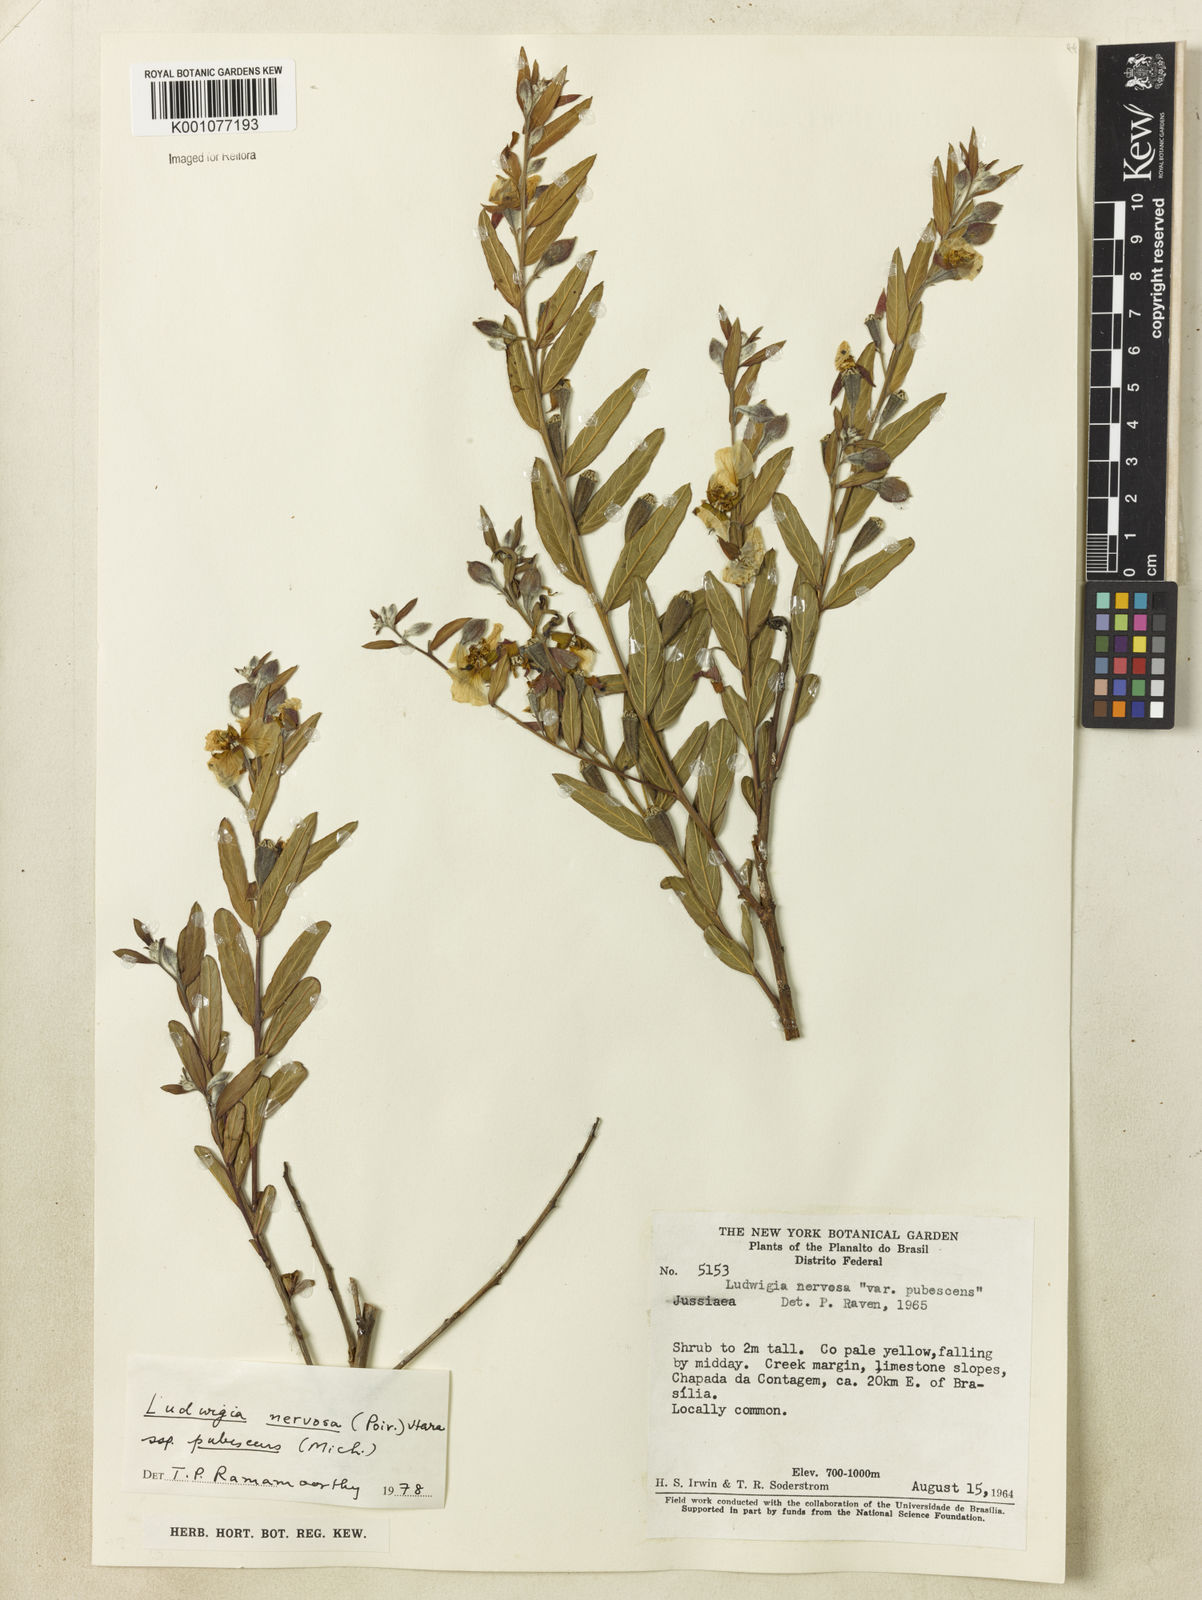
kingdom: Plantae
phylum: Tracheophyta
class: Magnoliopsida
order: Myrtales
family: Onagraceae
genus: Ludwigia
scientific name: Ludwigia nervosa
